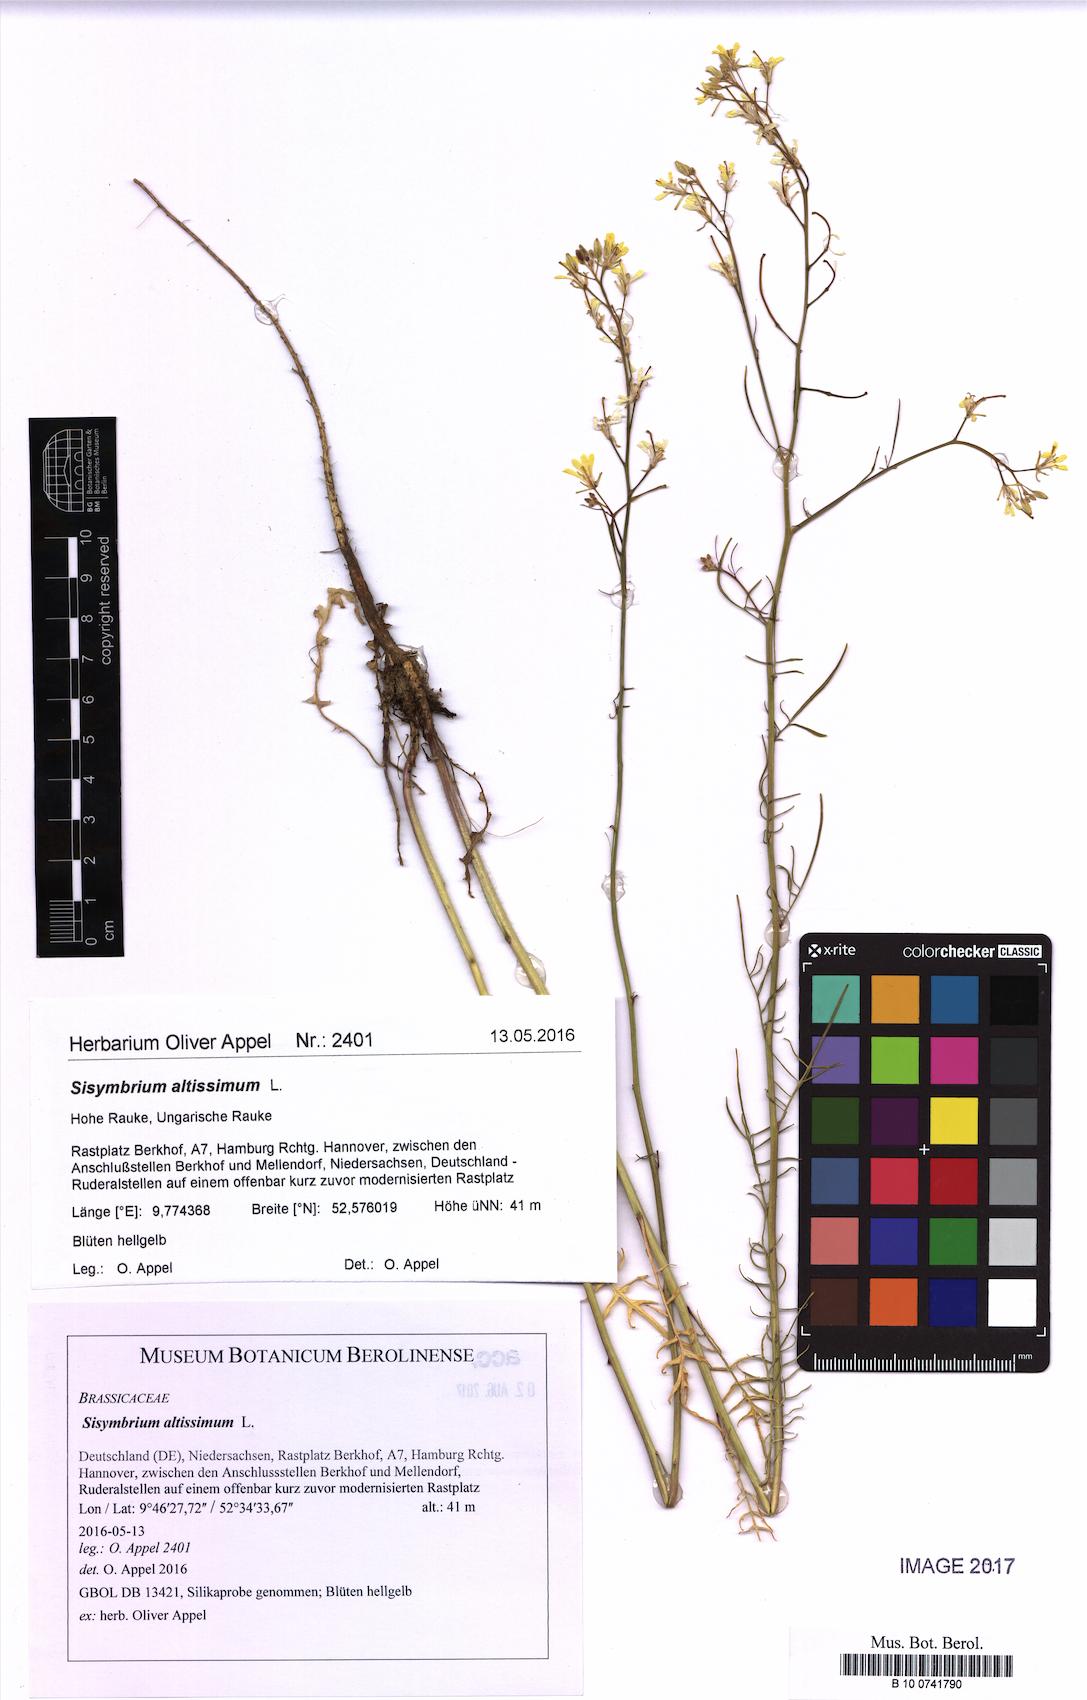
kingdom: Plantae
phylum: Tracheophyta
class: Magnoliopsida
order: Brassicales
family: Brassicaceae
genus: Sisymbrium
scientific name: Sisymbrium altissimum
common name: Tall rocket
